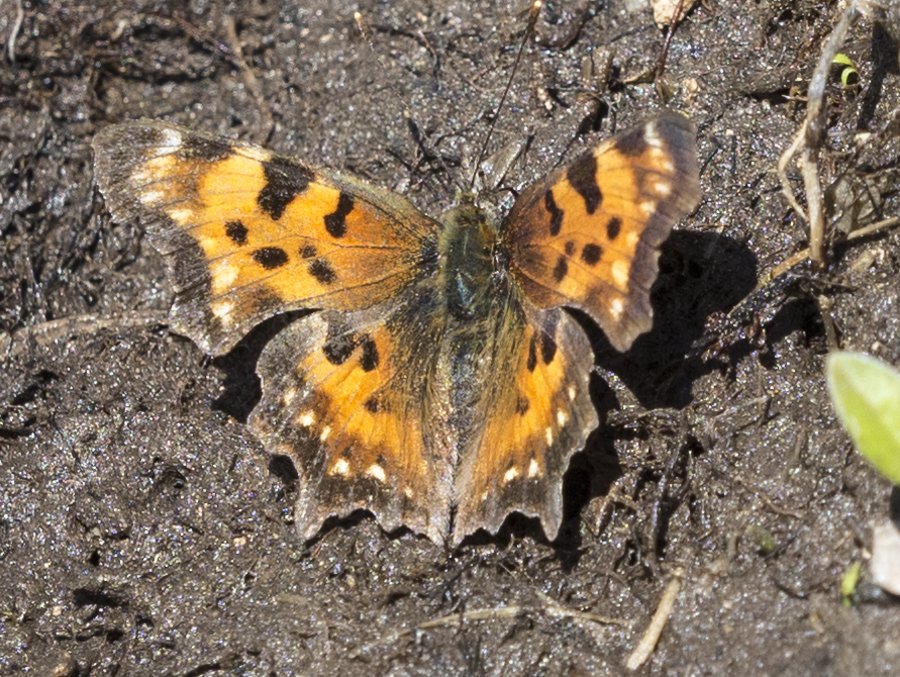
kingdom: Animalia
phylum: Arthropoda
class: Insecta
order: Lepidoptera
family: Nymphalidae
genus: Polygonia
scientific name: Polygonia faunus
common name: Green Comma
